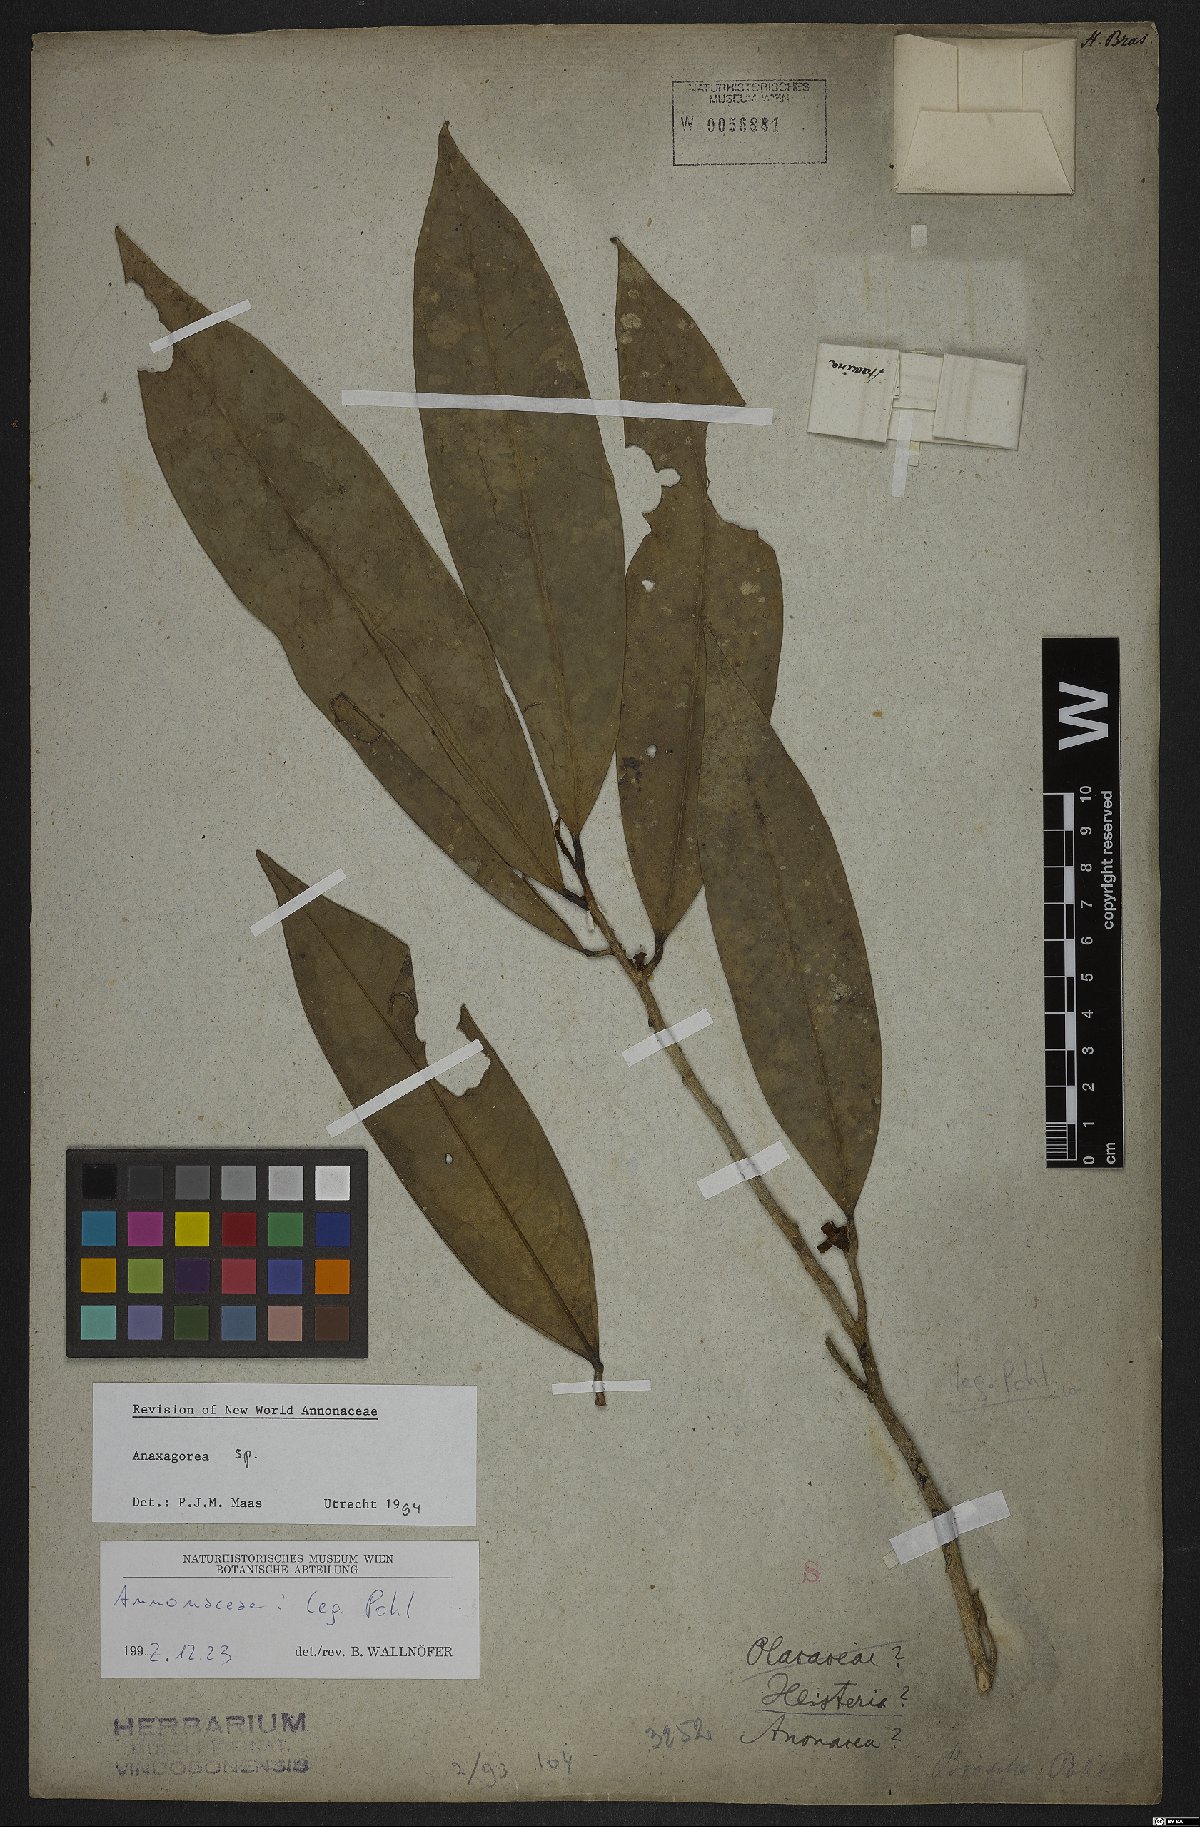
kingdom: Plantae
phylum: Tracheophyta
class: Magnoliopsida
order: Magnoliales
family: Annonaceae
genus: Anaxagorea
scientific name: Anaxagorea
